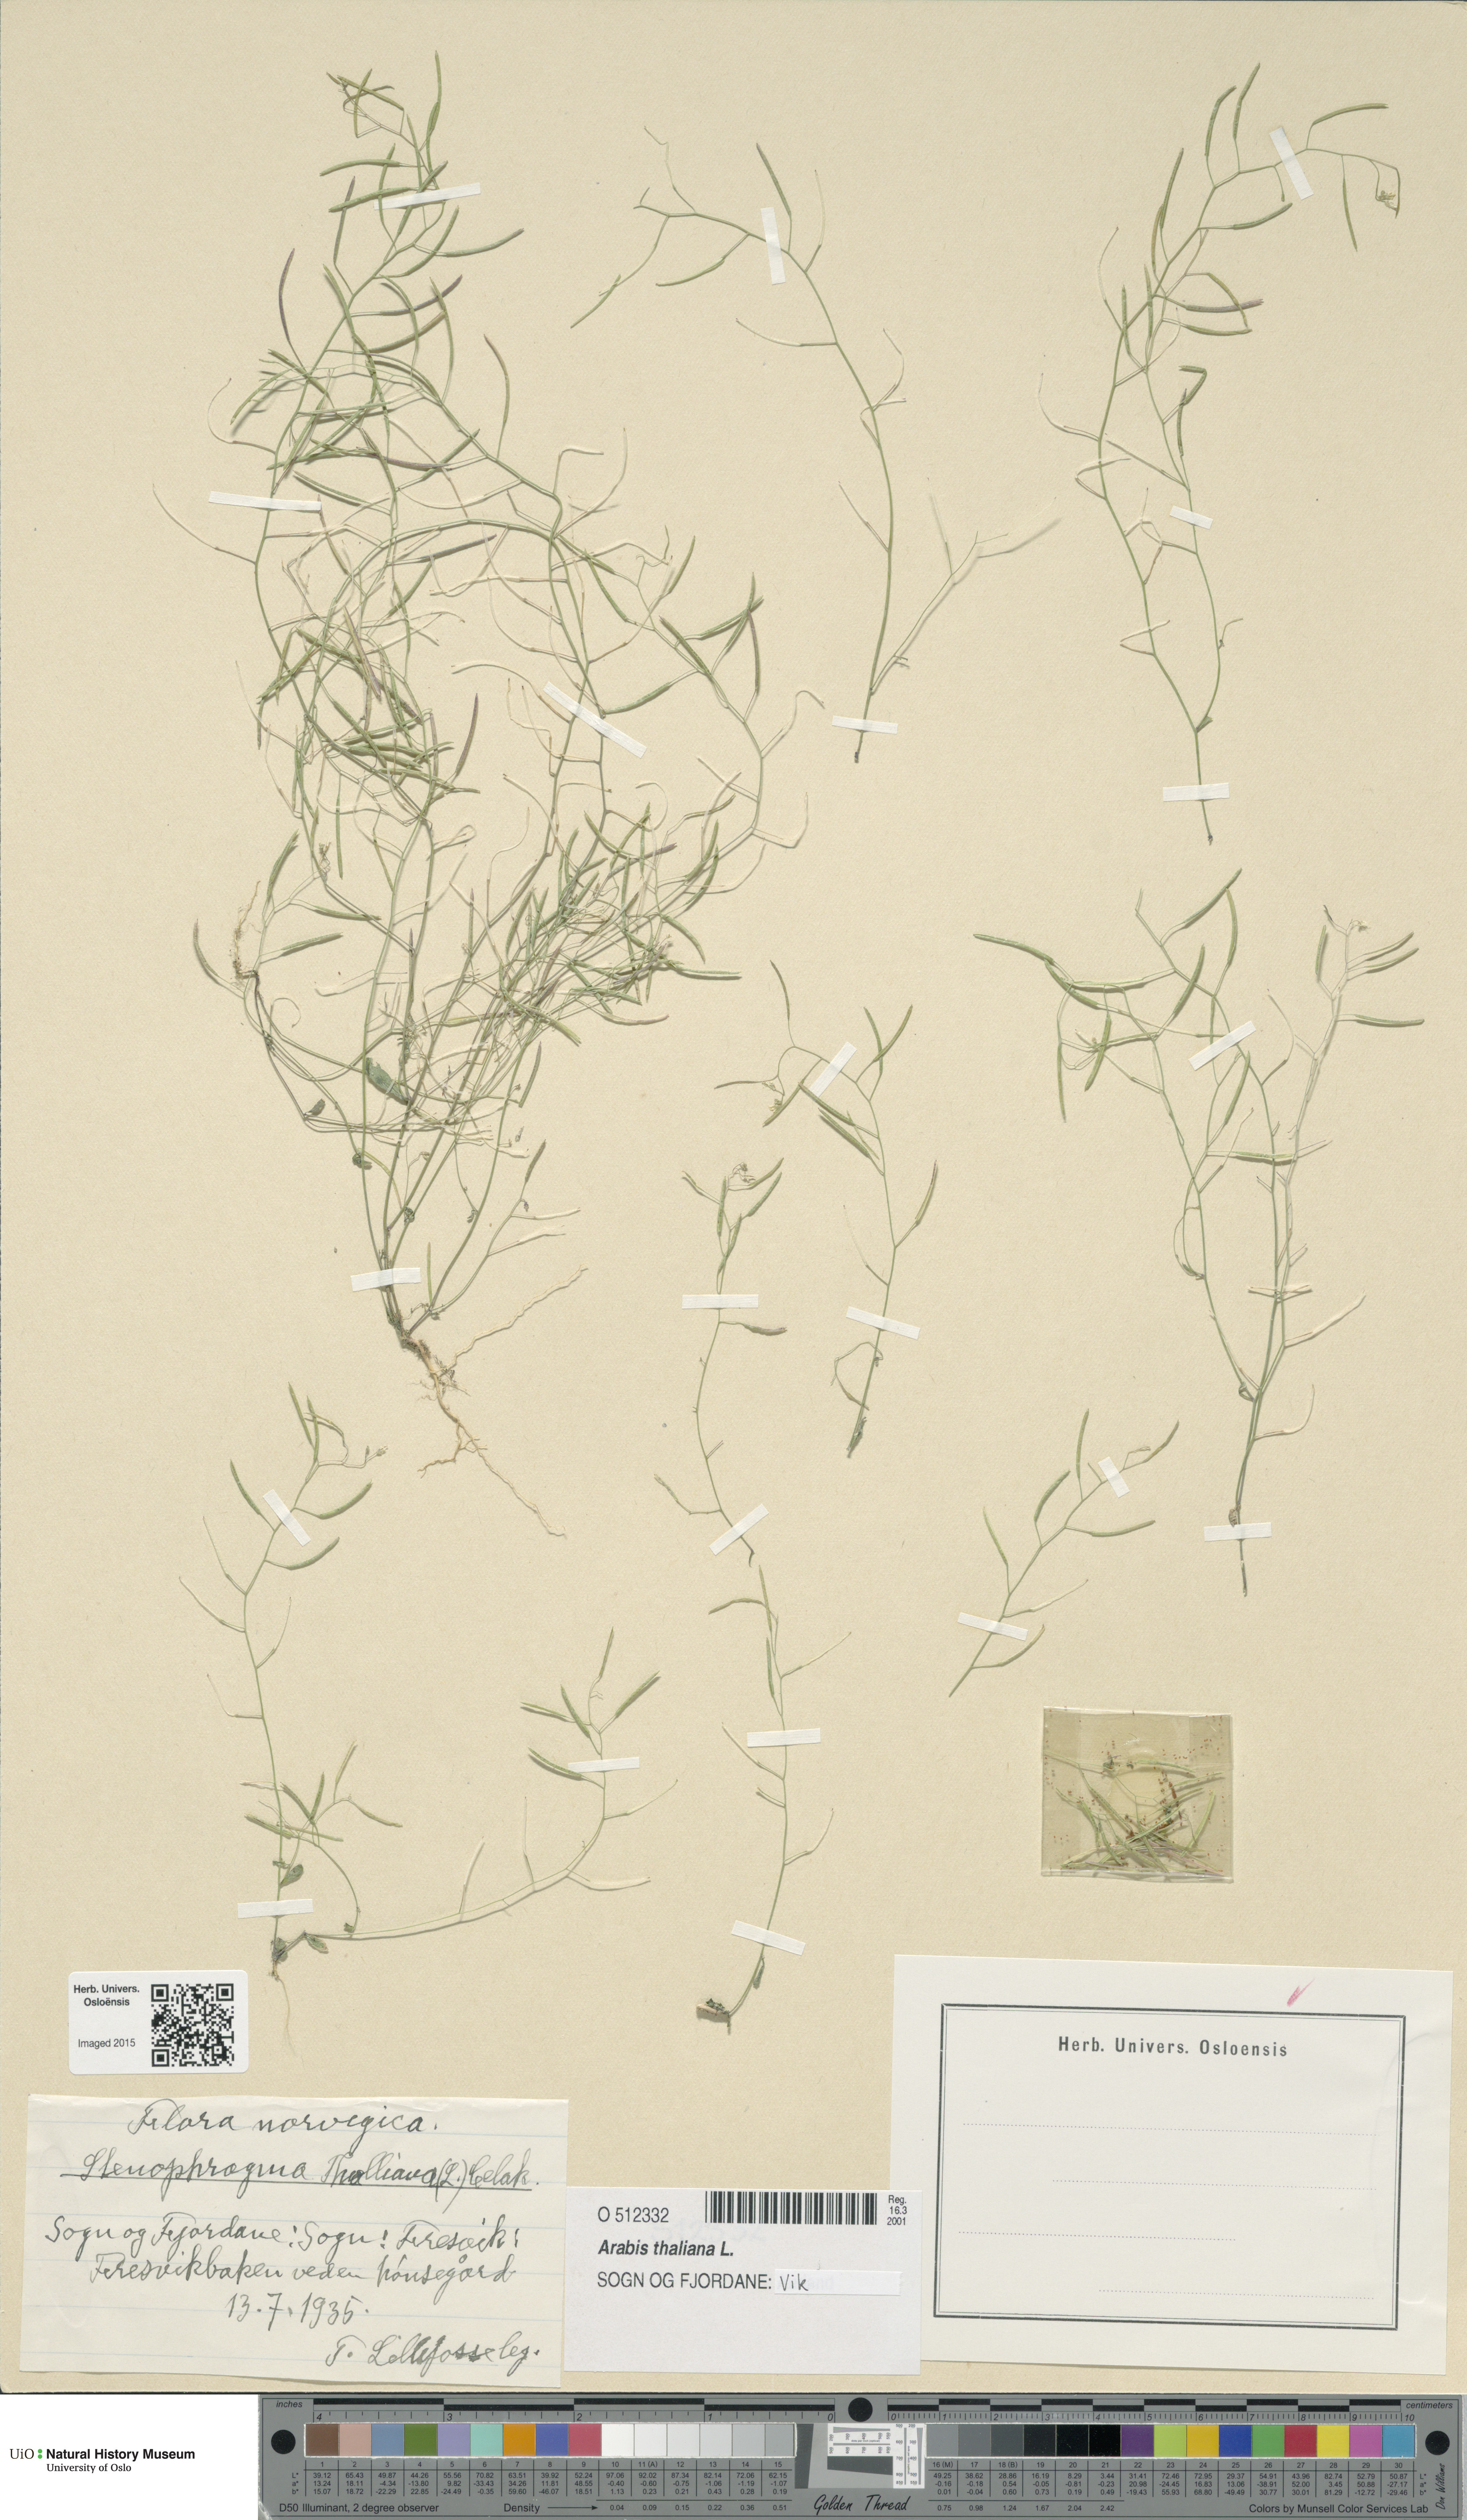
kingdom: Plantae
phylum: Tracheophyta
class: Magnoliopsida
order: Brassicales
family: Brassicaceae
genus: Arabidopsis
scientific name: Arabidopsis thaliana
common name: Thale cress
